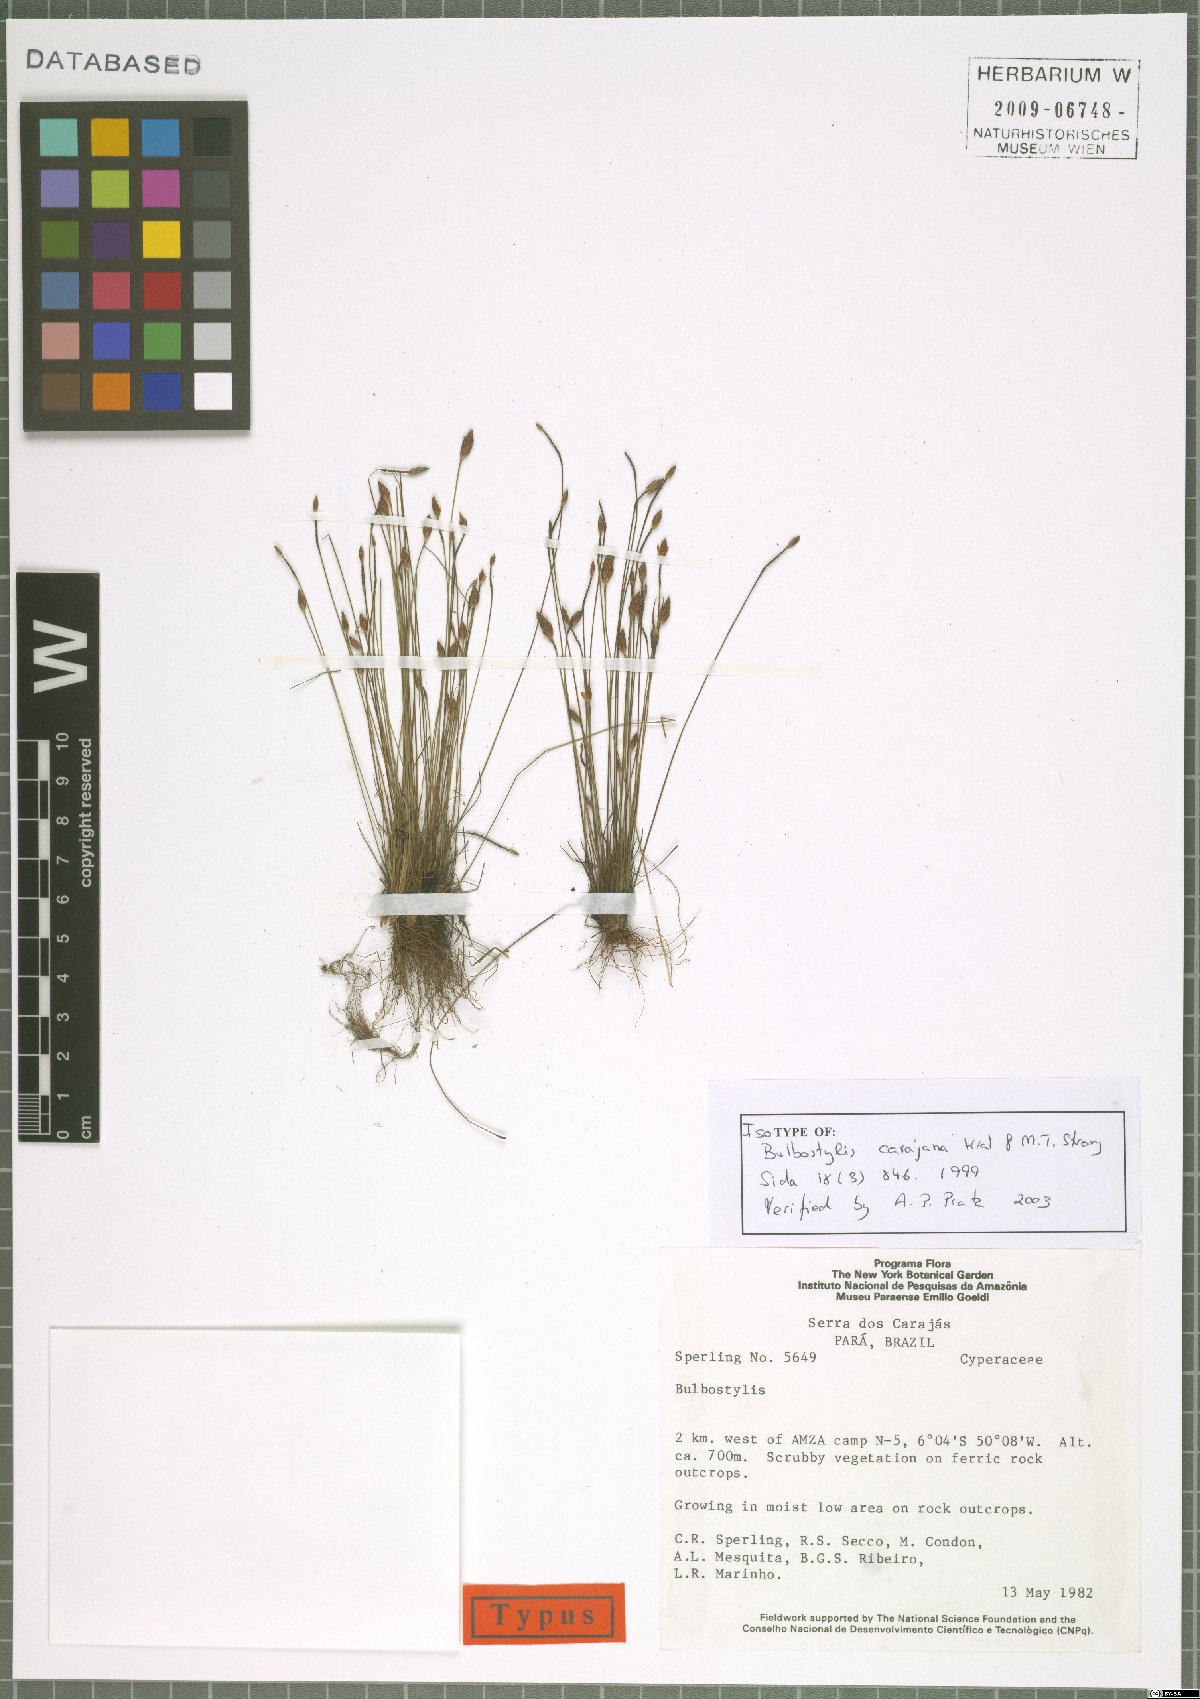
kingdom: Plantae
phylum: Tracheophyta
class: Liliopsida
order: Poales
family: Cyperaceae
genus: Bulbostylis
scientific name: Bulbostylis carajana
